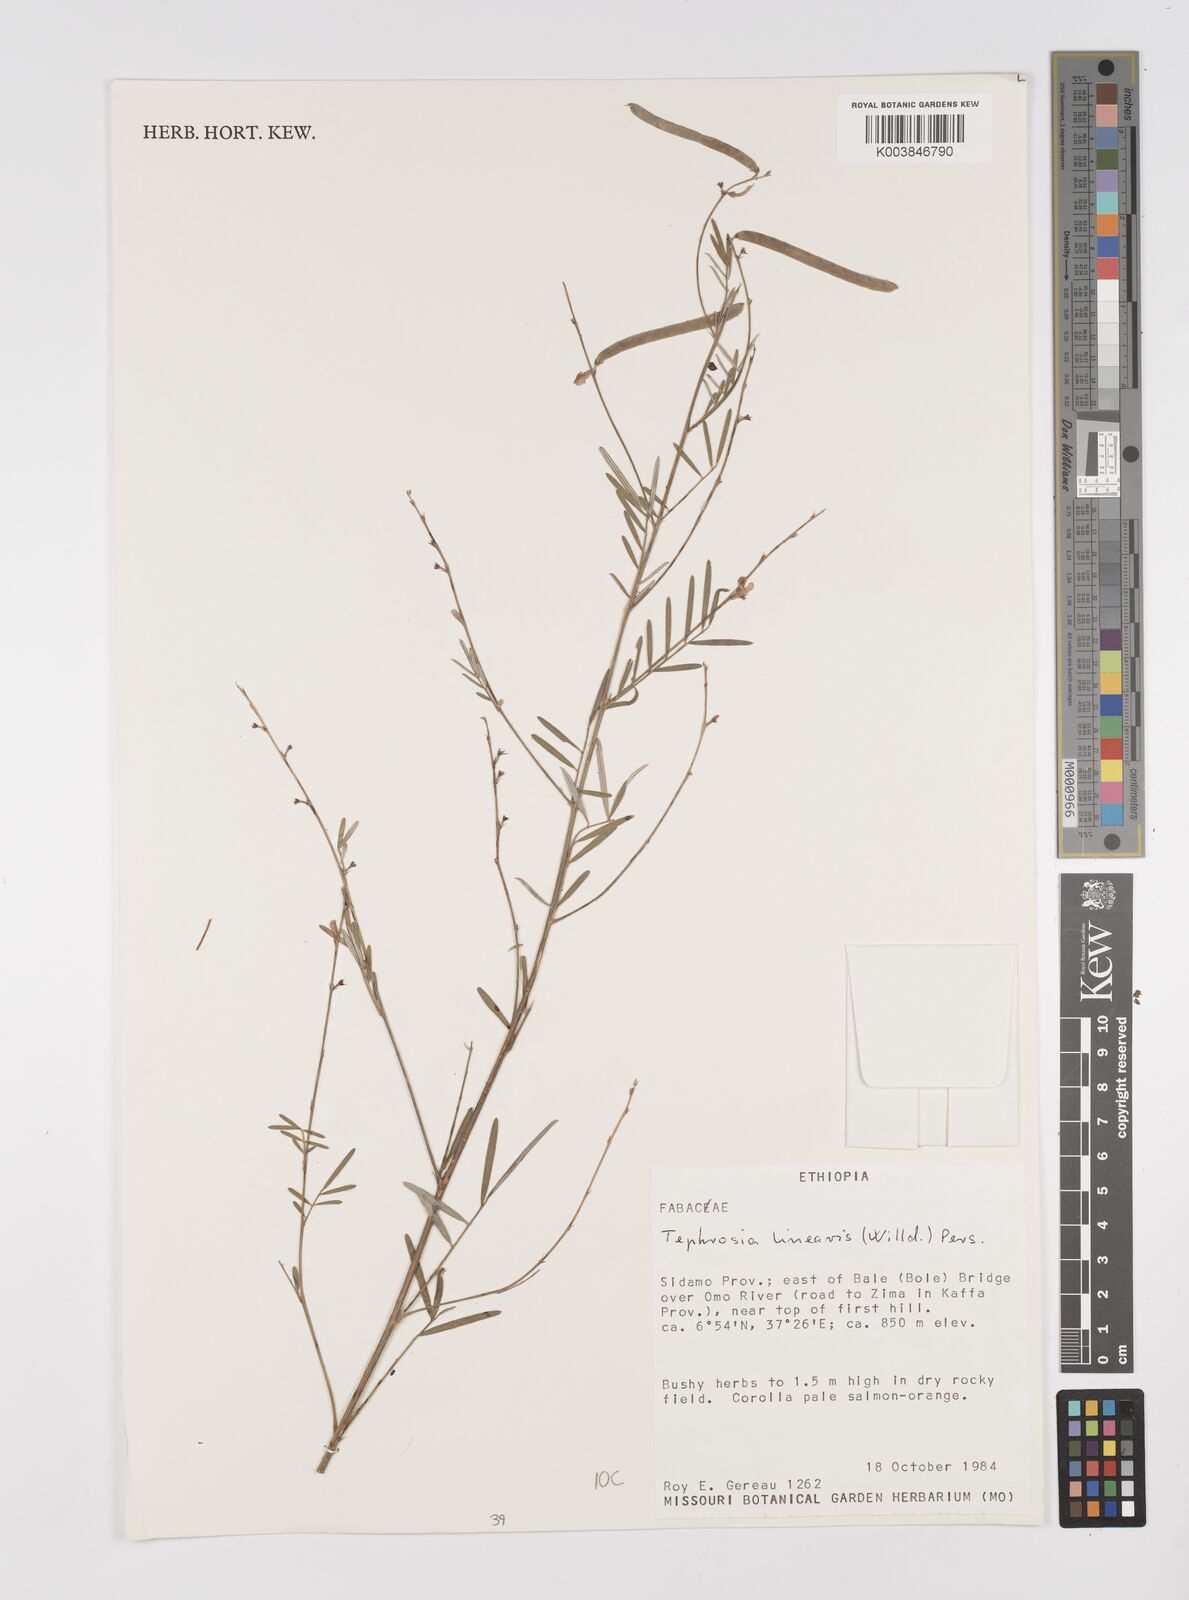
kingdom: Plantae
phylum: Tracheophyta
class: Magnoliopsida
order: Fabales
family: Fabaceae
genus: Tephrosia
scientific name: Tephrosia linearis
